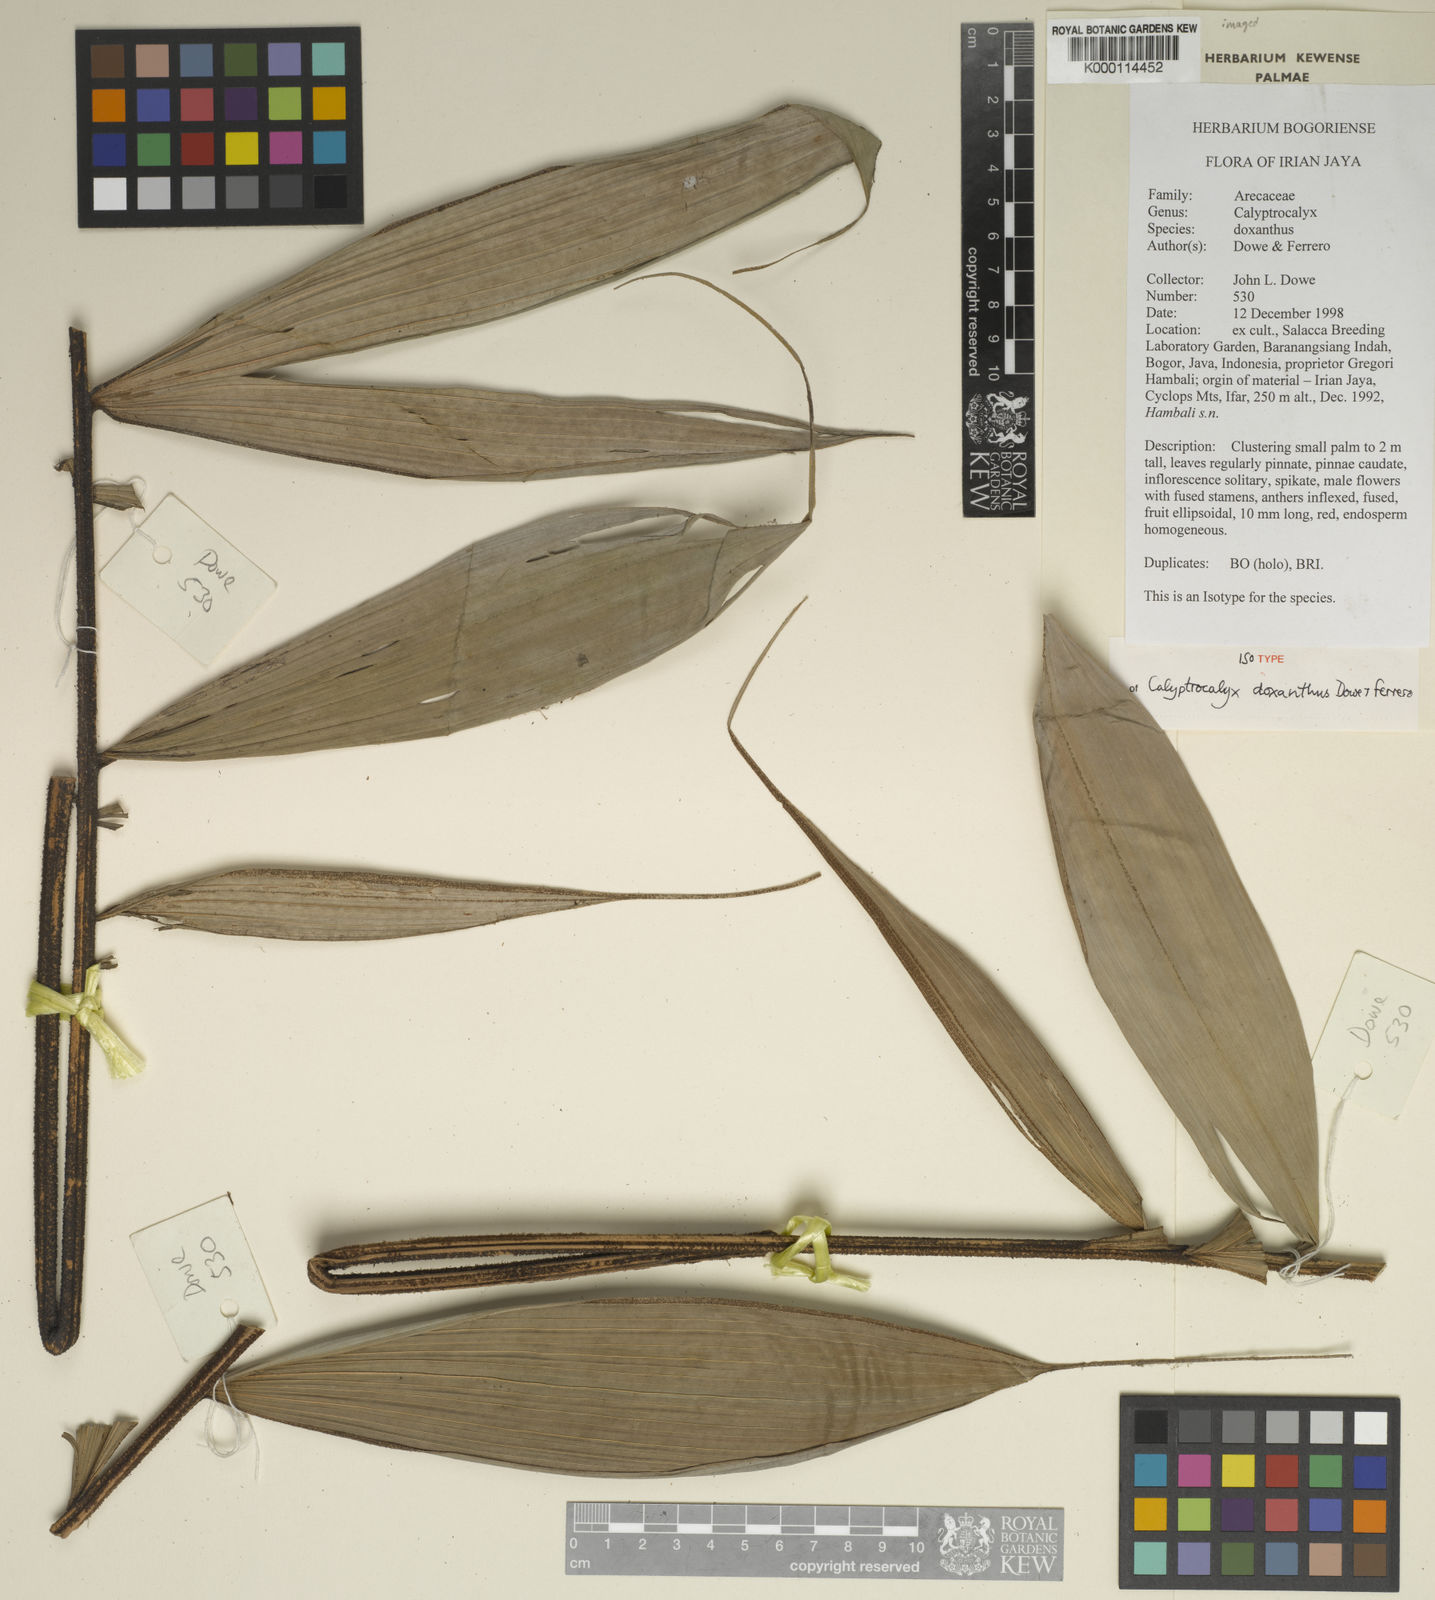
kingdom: Plantae
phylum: Tracheophyta
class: Liliopsida
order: Arecales
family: Arecaceae
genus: Calyptrocalyx
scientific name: Calyptrocalyx doxanthus
